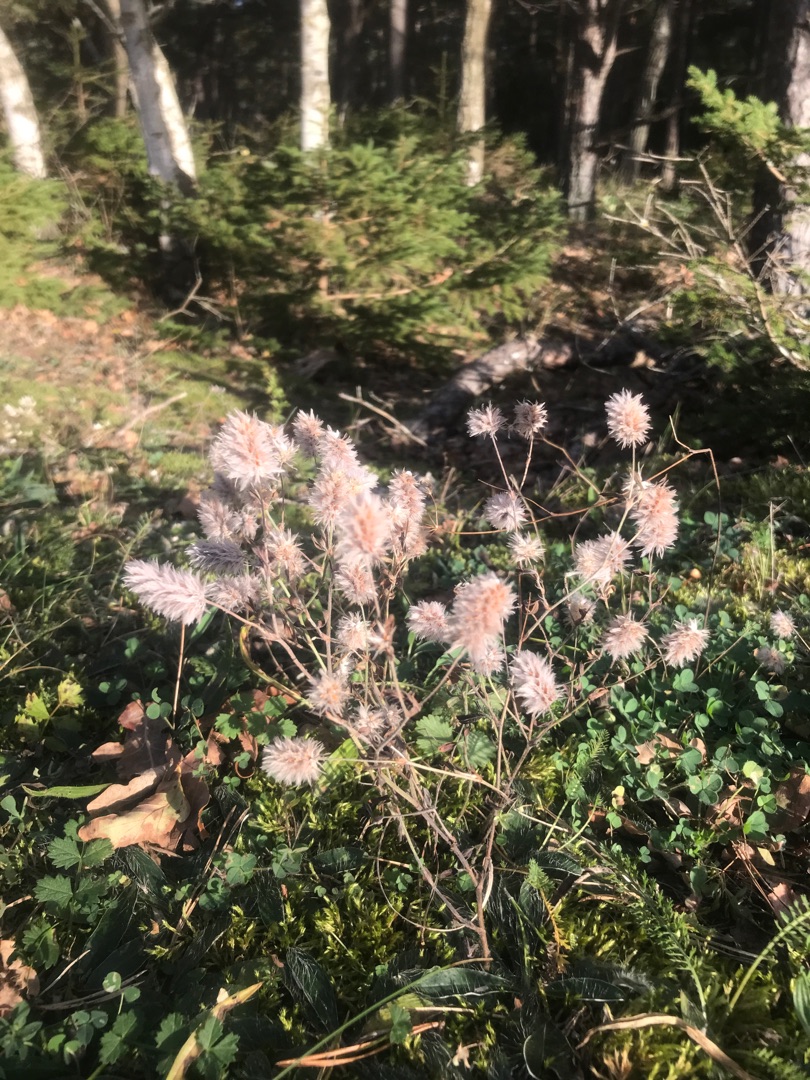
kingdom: Plantae
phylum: Tracheophyta
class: Magnoliopsida
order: Fabales
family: Fabaceae
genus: Trifolium
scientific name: Trifolium arvense
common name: Hare-kløver
